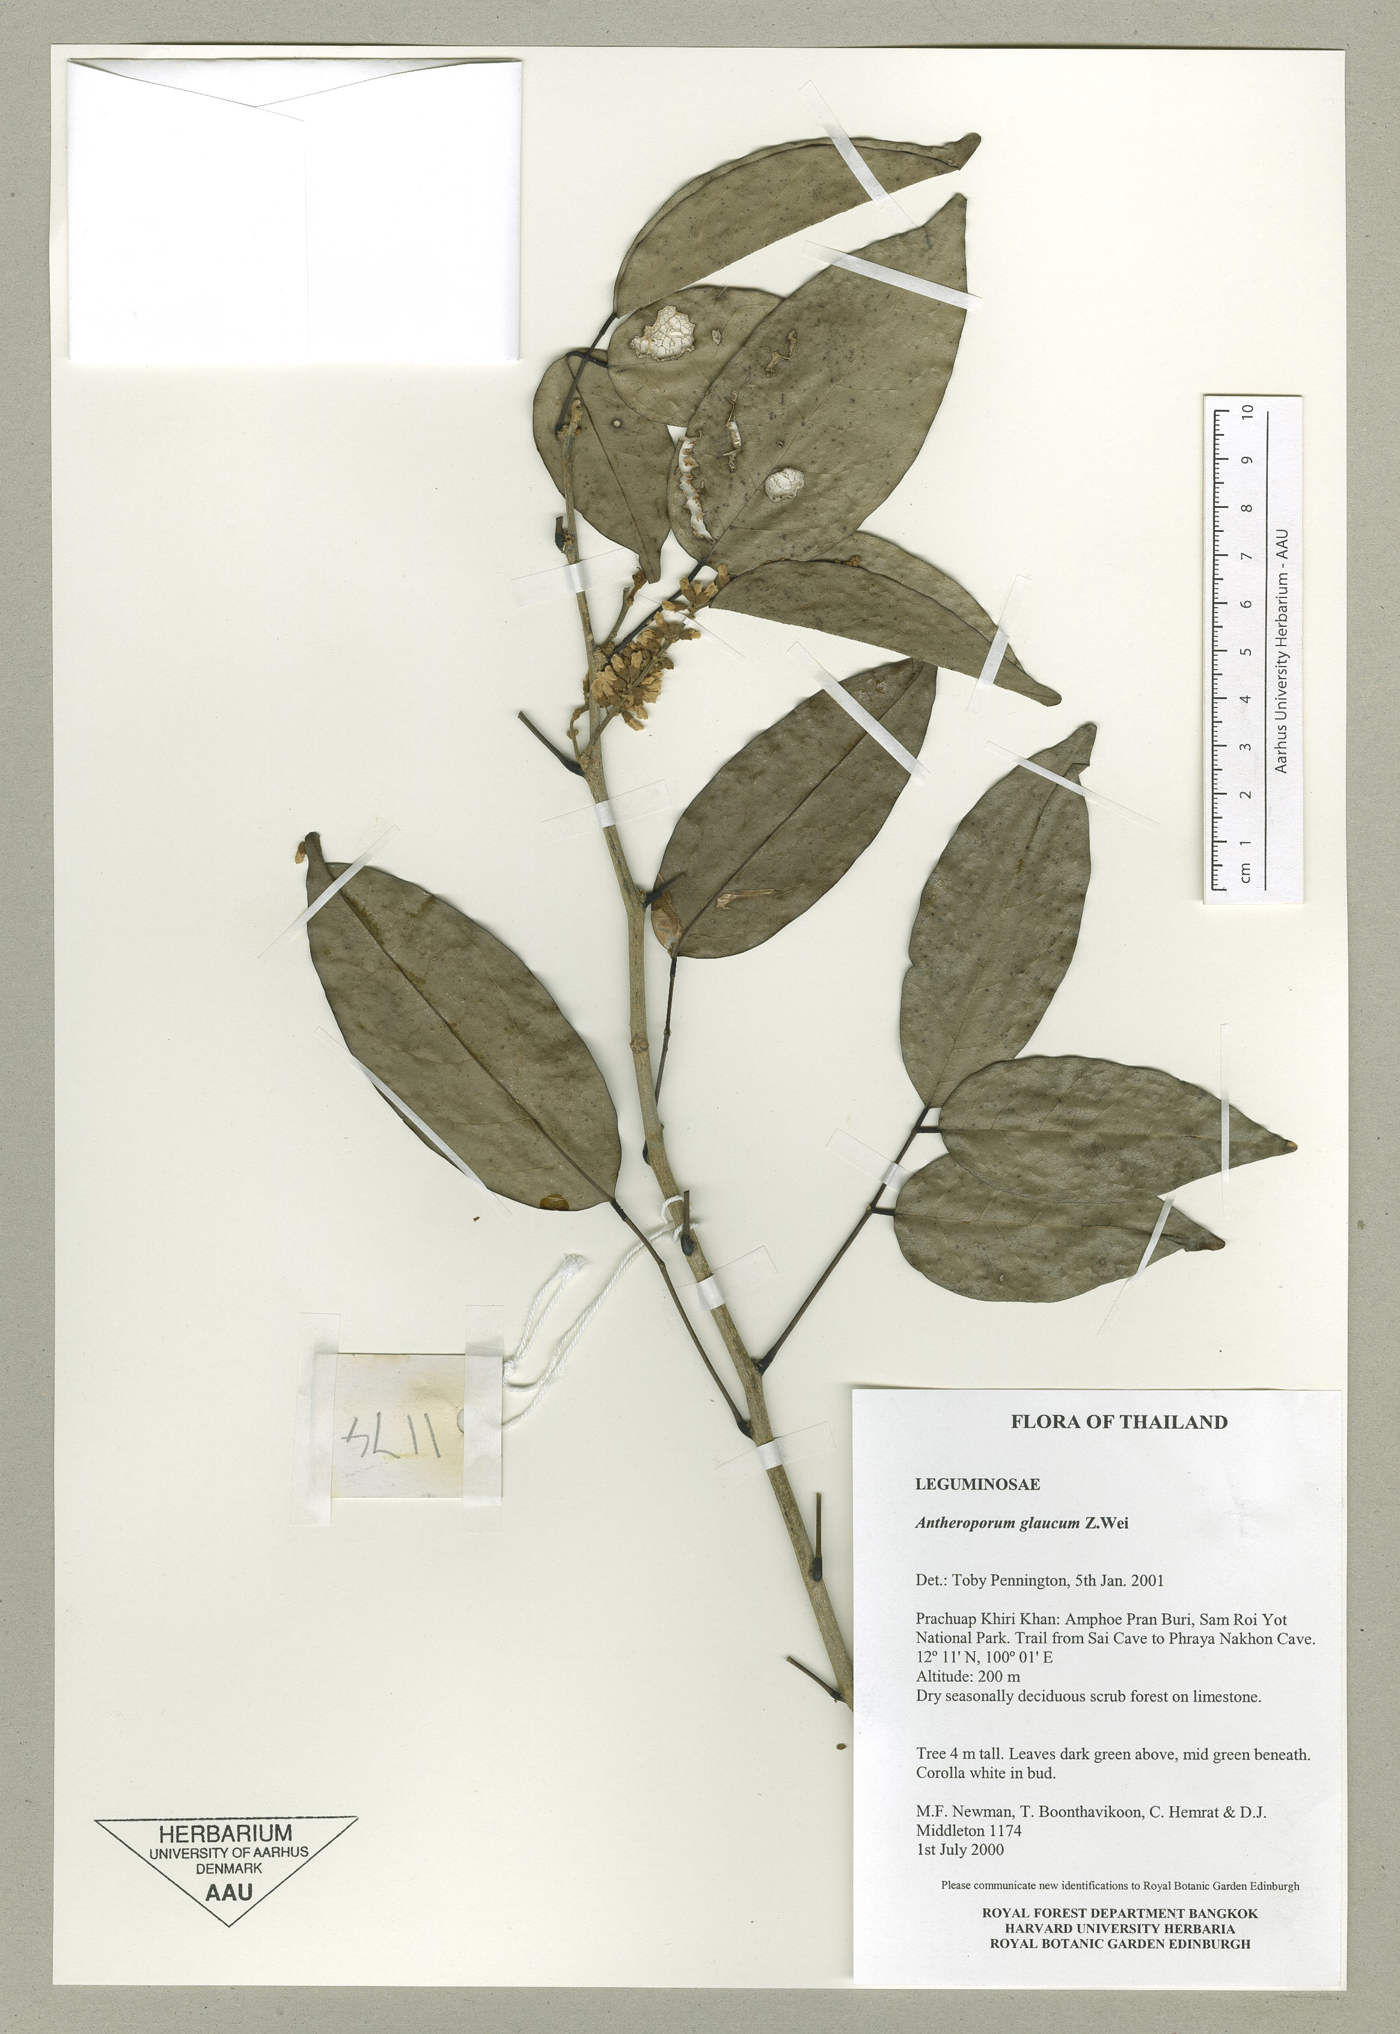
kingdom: Plantae
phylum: Tracheophyta
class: Magnoliopsida
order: Fabales
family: Fabaceae
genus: Antheroporum
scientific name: Antheroporum harmandii
